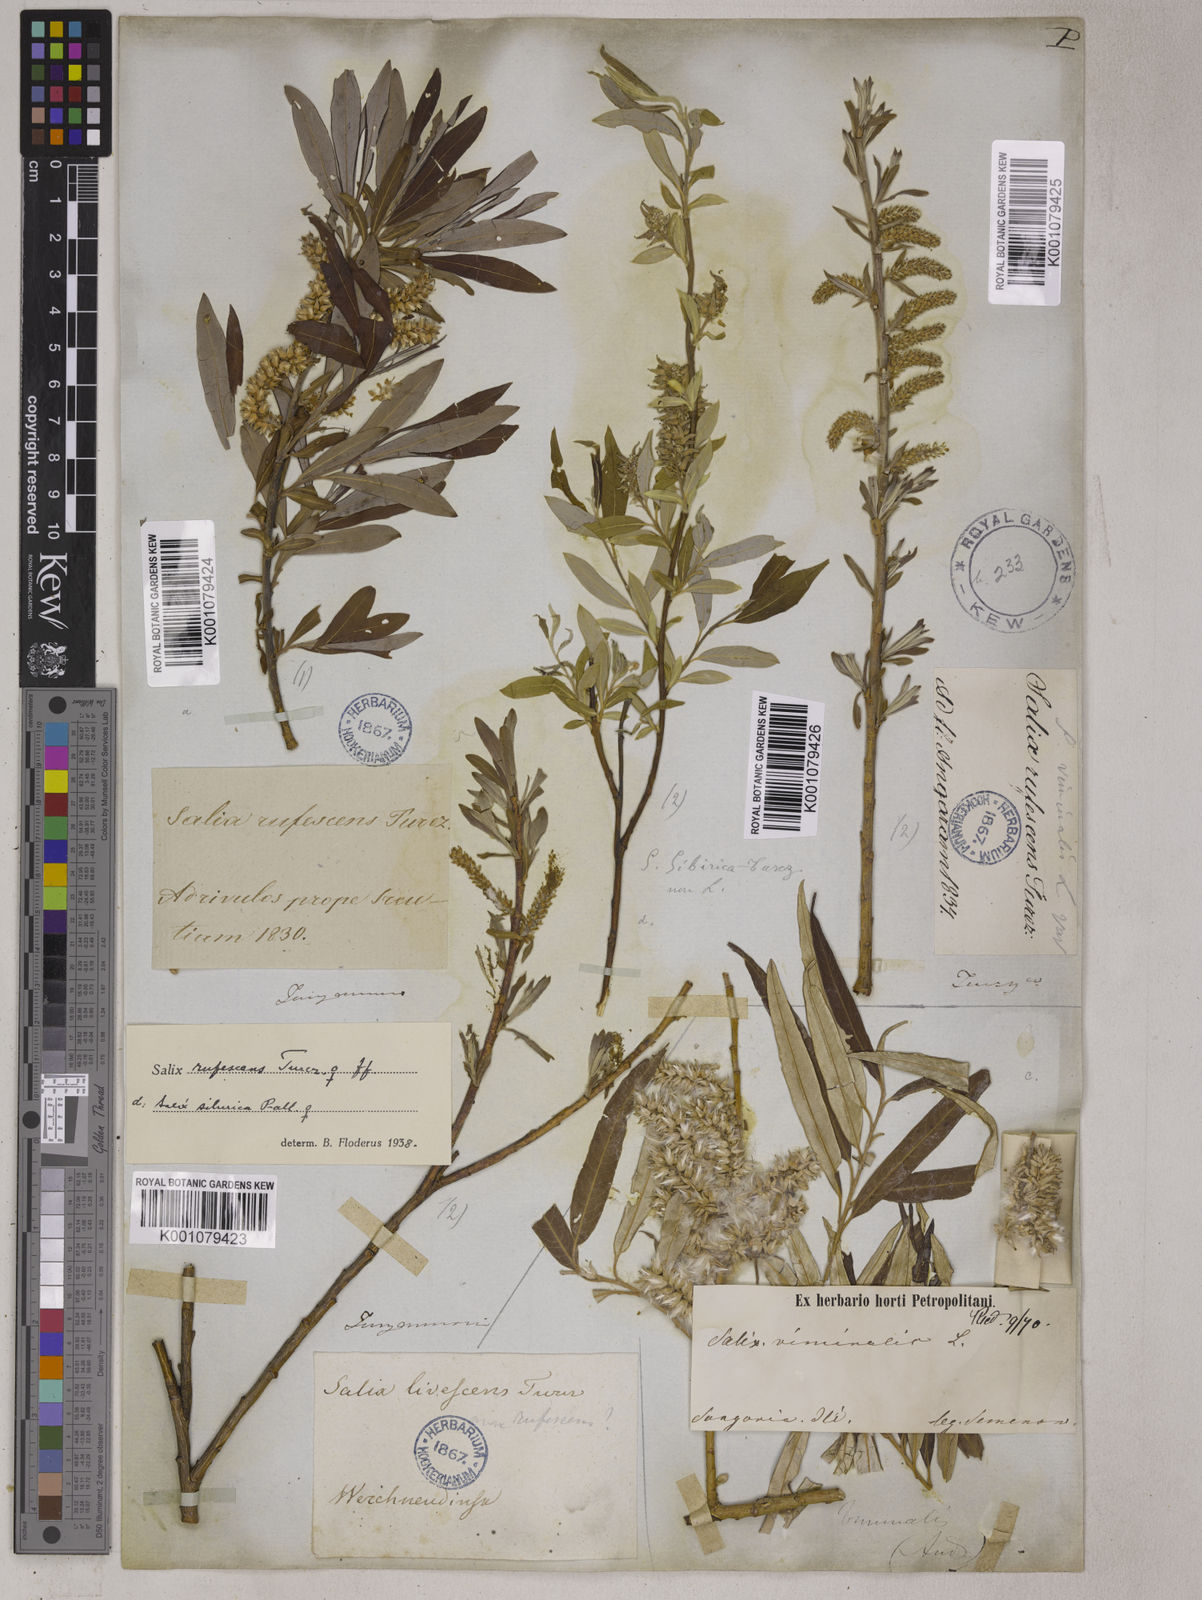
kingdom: Plantae
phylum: Tracheophyta
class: Magnoliopsida
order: Malpighiales
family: Salicaceae
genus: Salix
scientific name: Salix viminalis
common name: Osier
